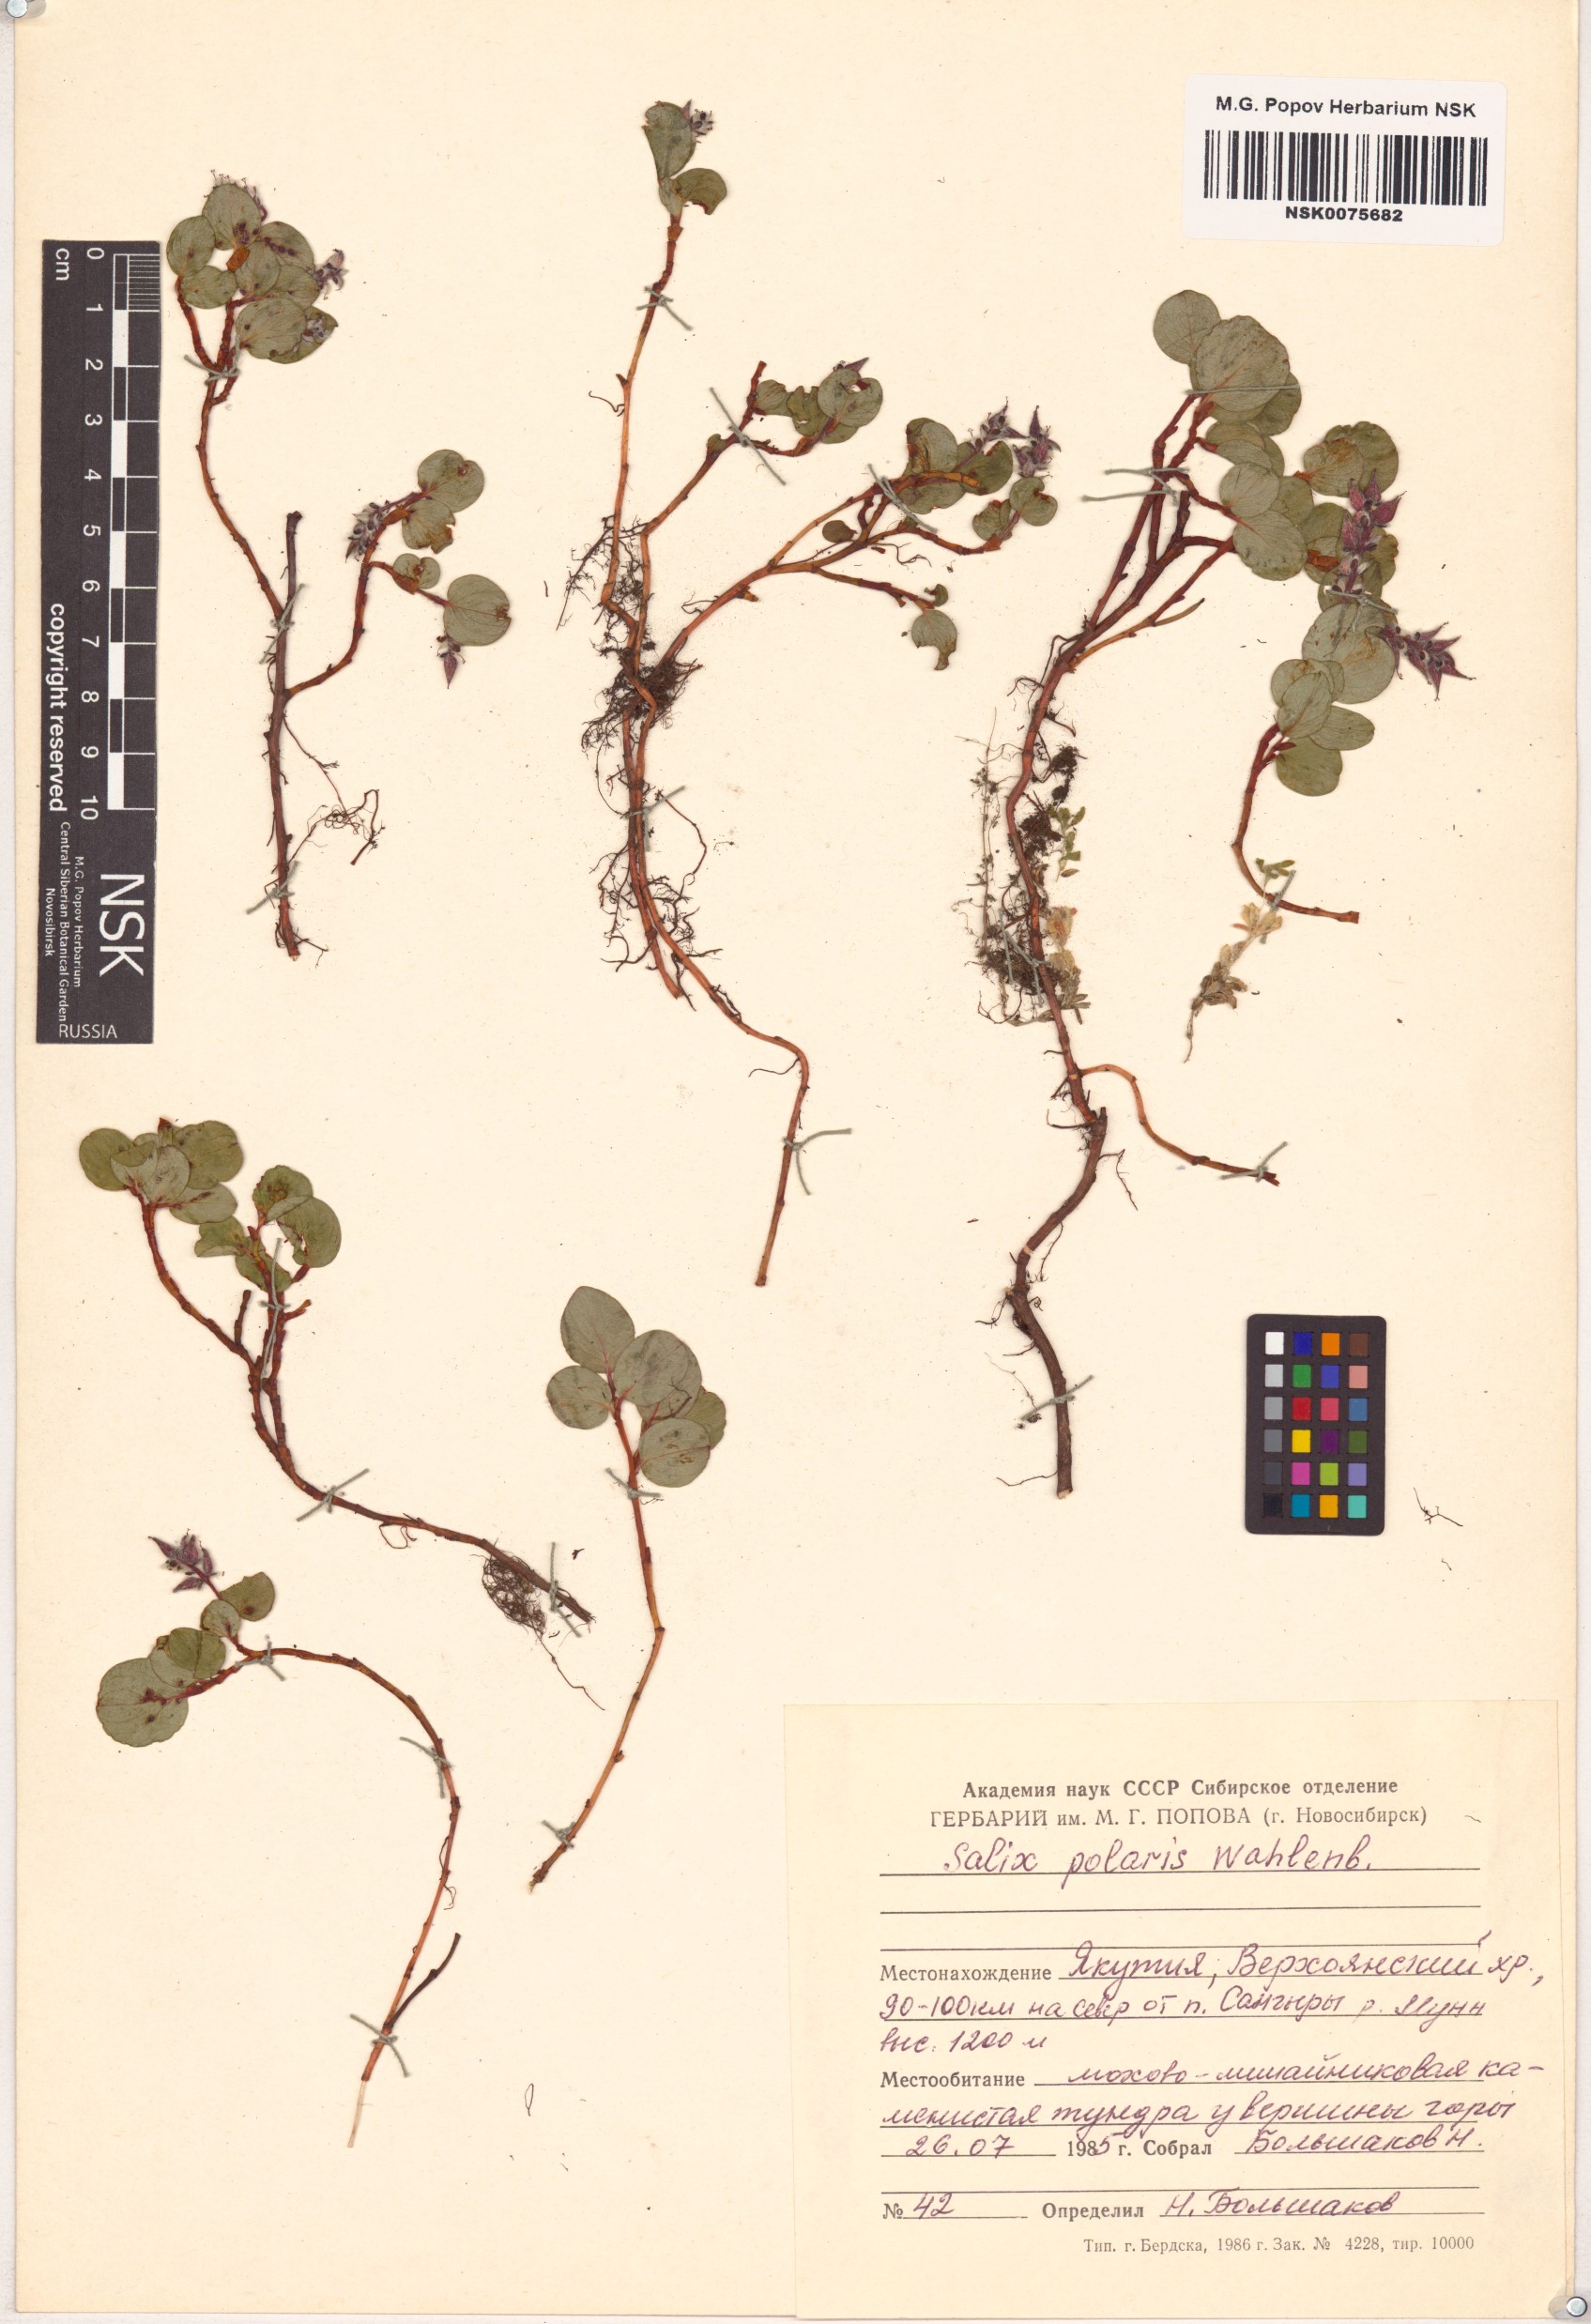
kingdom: Plantae
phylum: Tracheophyta
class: Magnoliopsida
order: Malpighiales
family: Salicaceae
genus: Salix
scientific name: Salix polaris
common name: Polar willow
